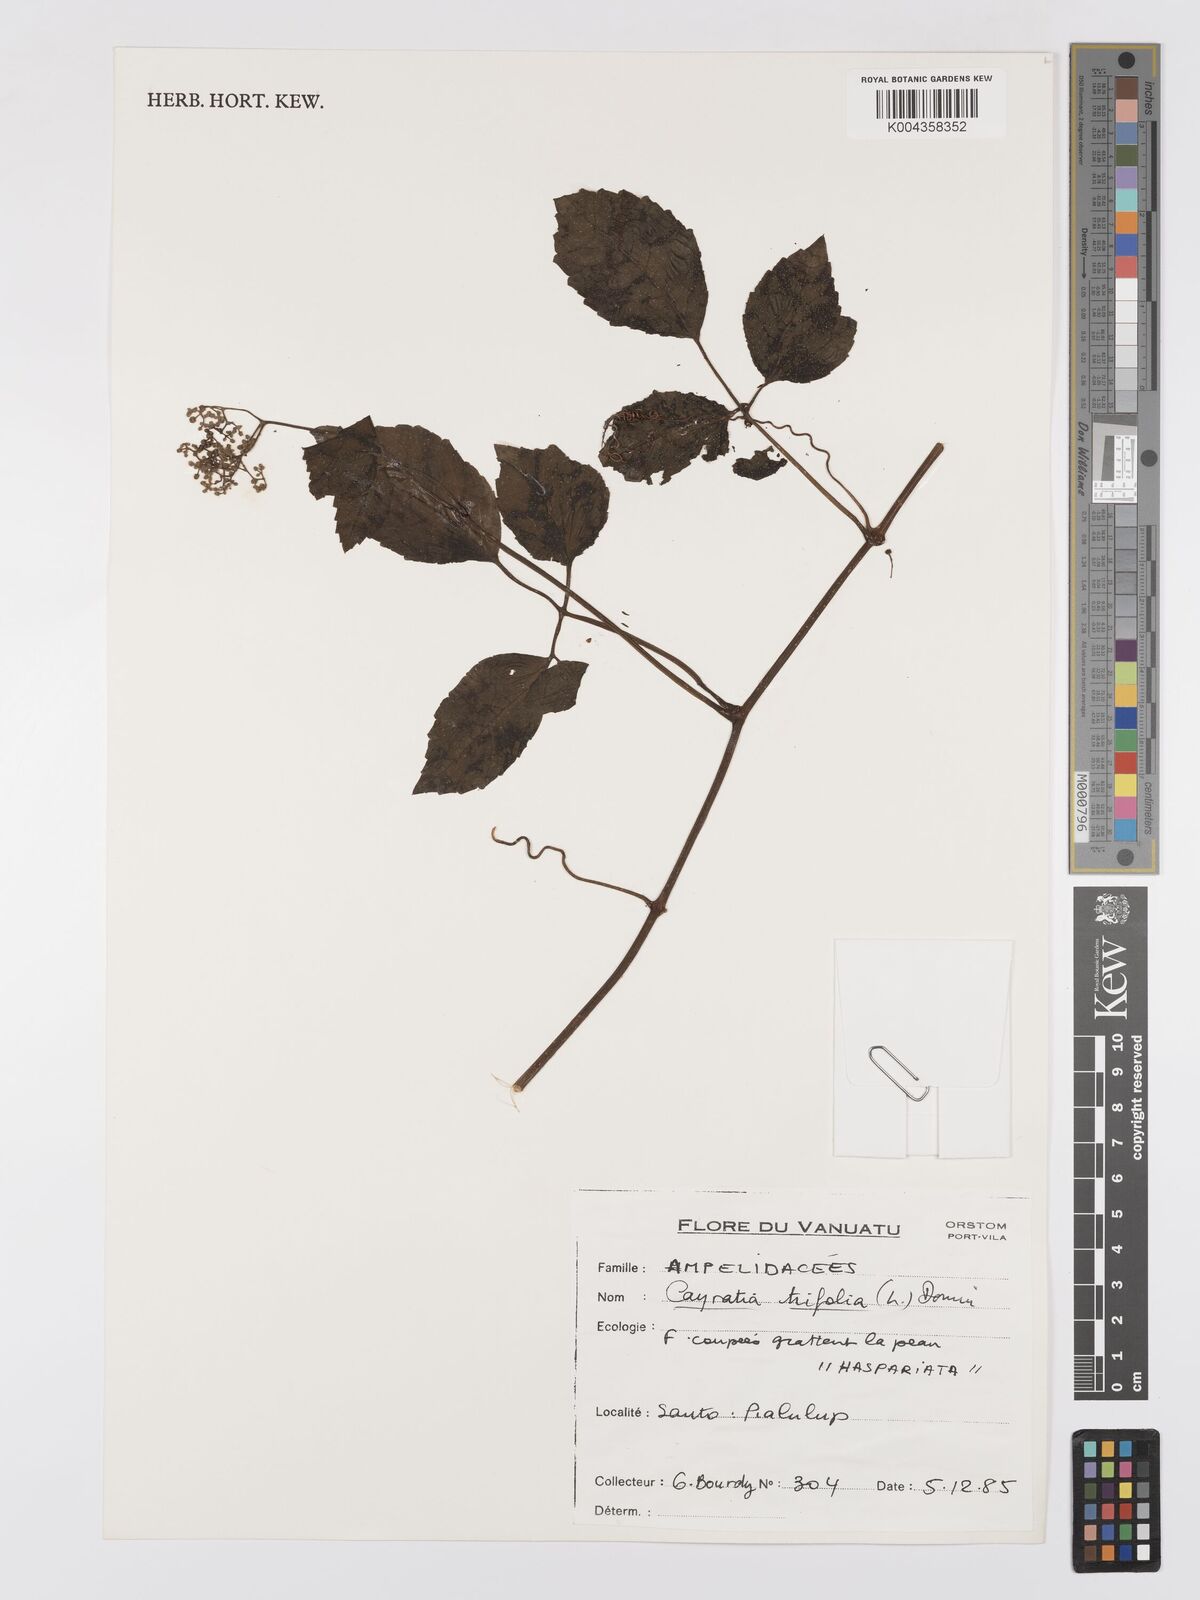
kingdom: Plantae
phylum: Tracheophyta
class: Magnoliopsida
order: Vitales
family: Vitaceae
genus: Causonis
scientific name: Causonis trifolia
